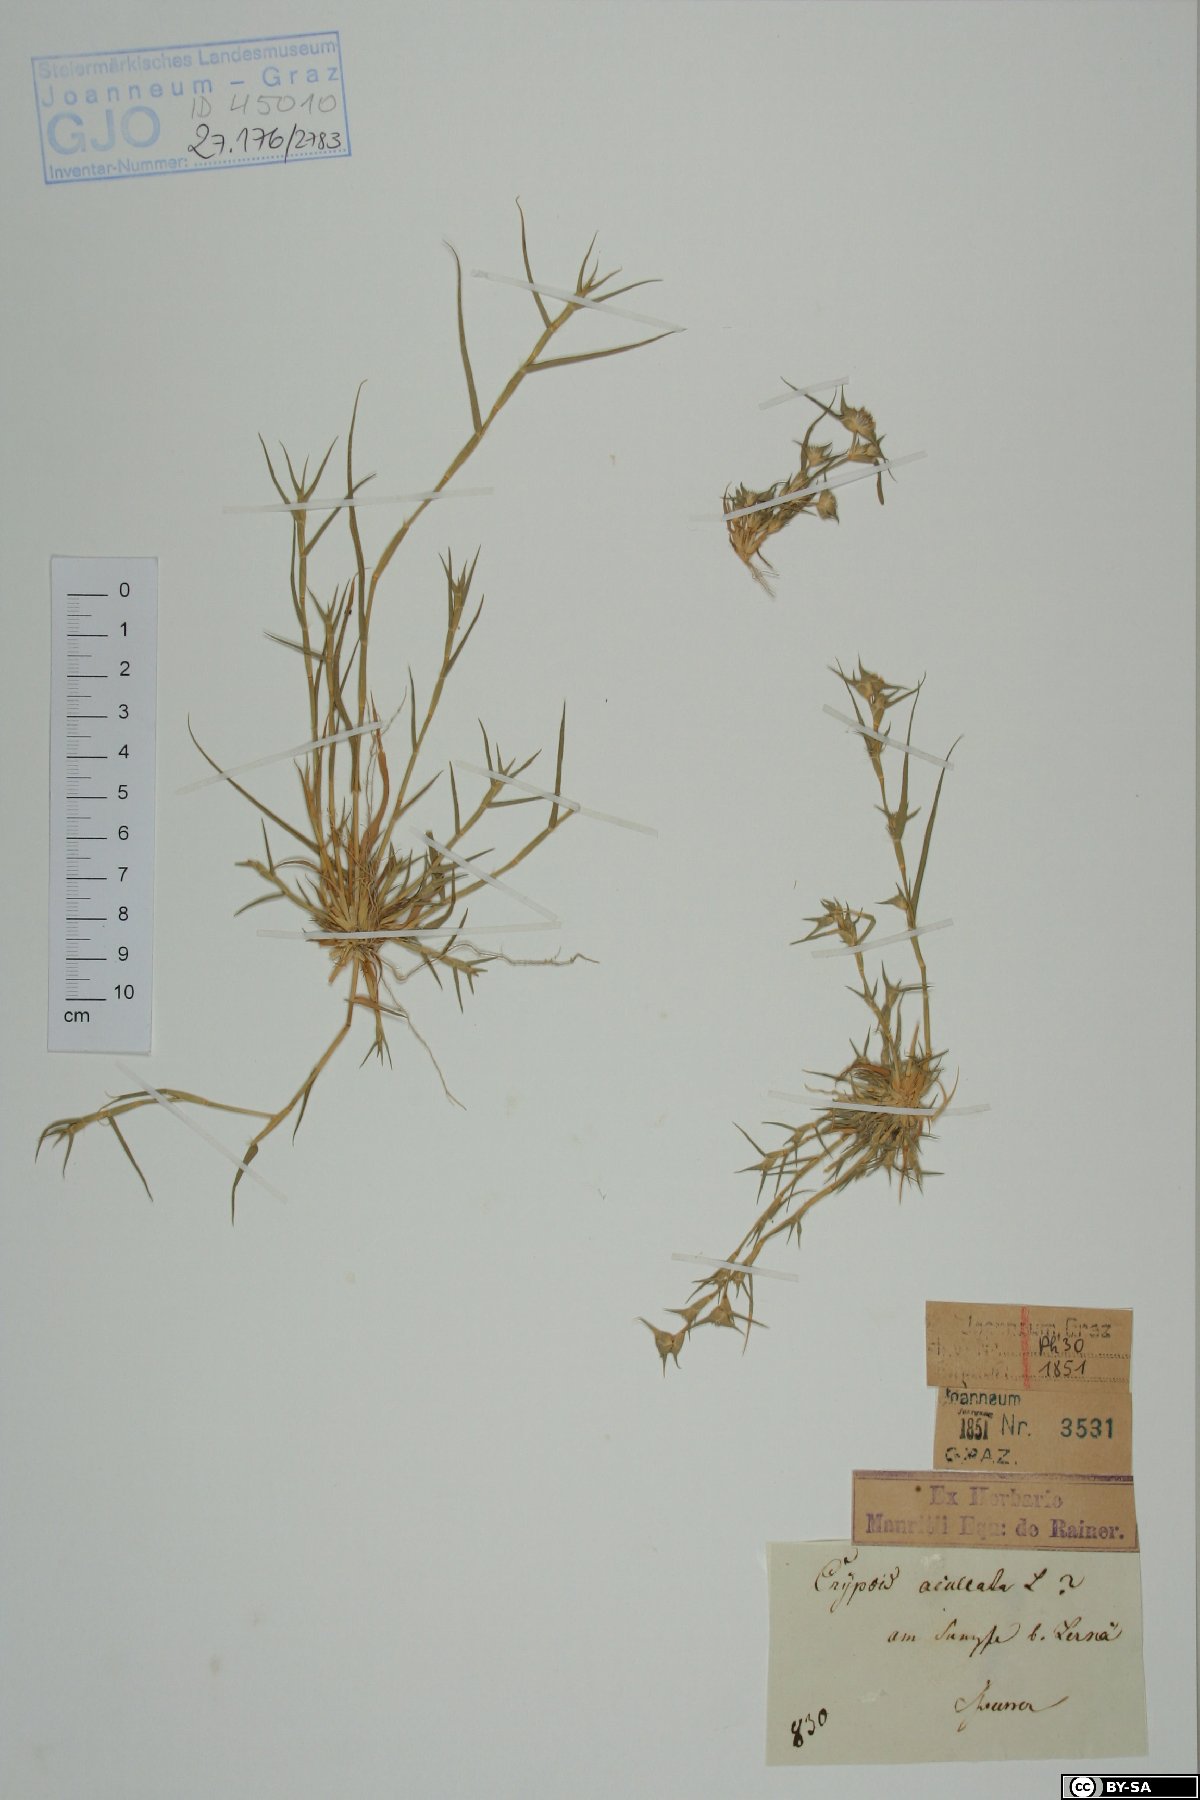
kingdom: Plantae
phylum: Tracheophyta
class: Liliopsida
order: Poales
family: Poaceae
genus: Sporobolus
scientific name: Sporobolus aculeatus
